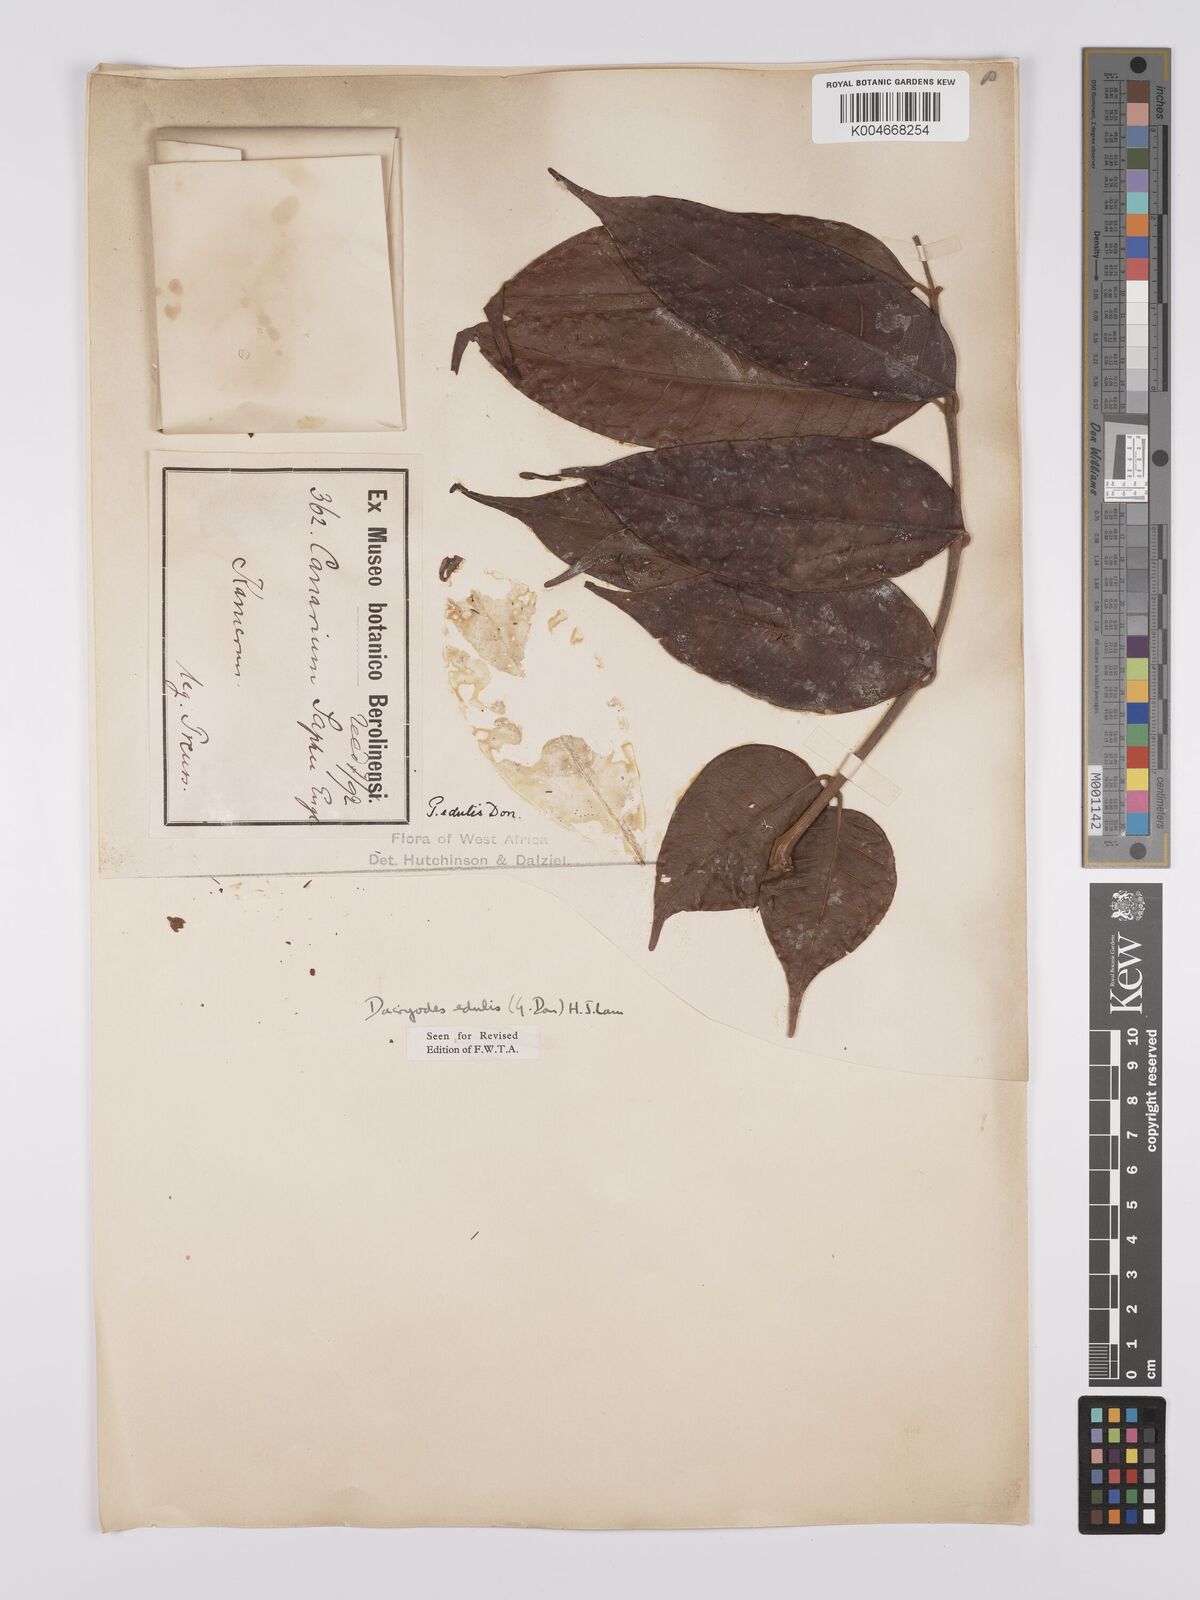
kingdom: Plantae
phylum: Tracheophyta
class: Magnoliopsida
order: Sapindales
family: Burseraceae
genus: Pachylobus
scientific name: Pachylobus edulis
